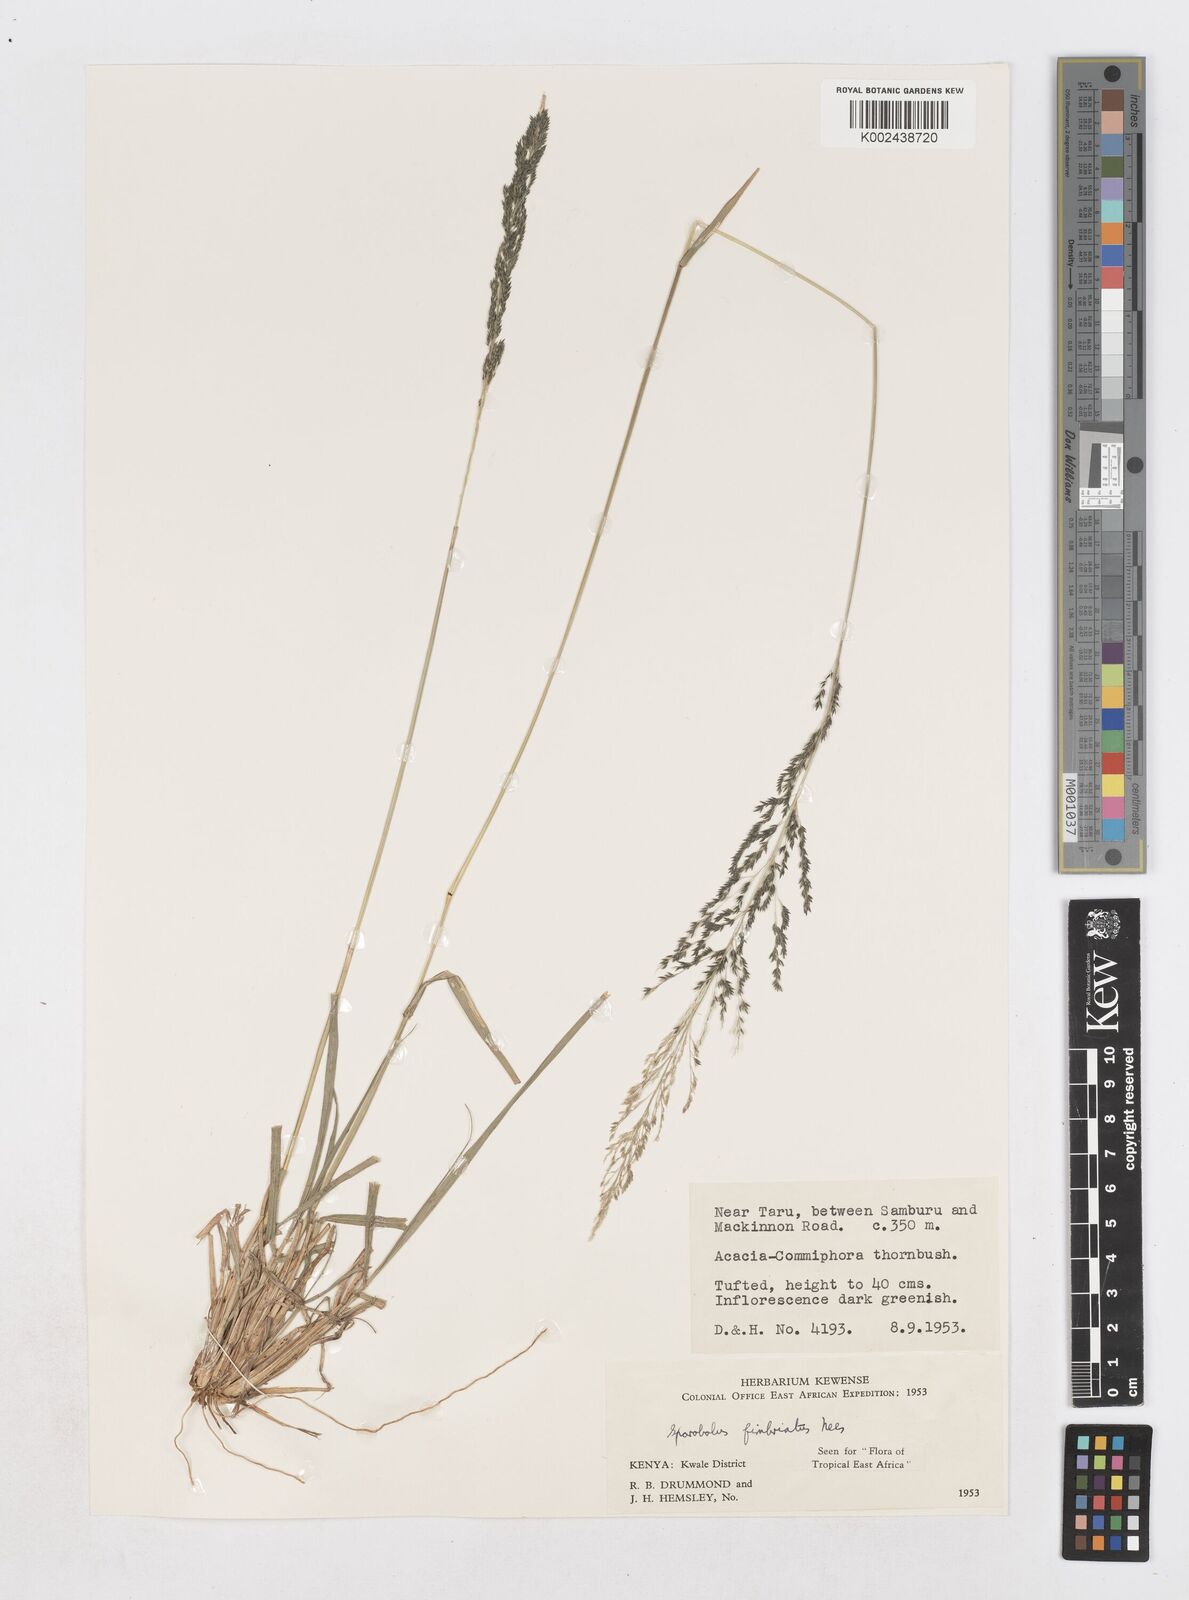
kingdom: Plantae
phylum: Tracheophyta
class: Liliopsida
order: Poales
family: Poaceae
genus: Sporobolus
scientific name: Sporobolus fimbriatus
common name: Fringed dropseed
